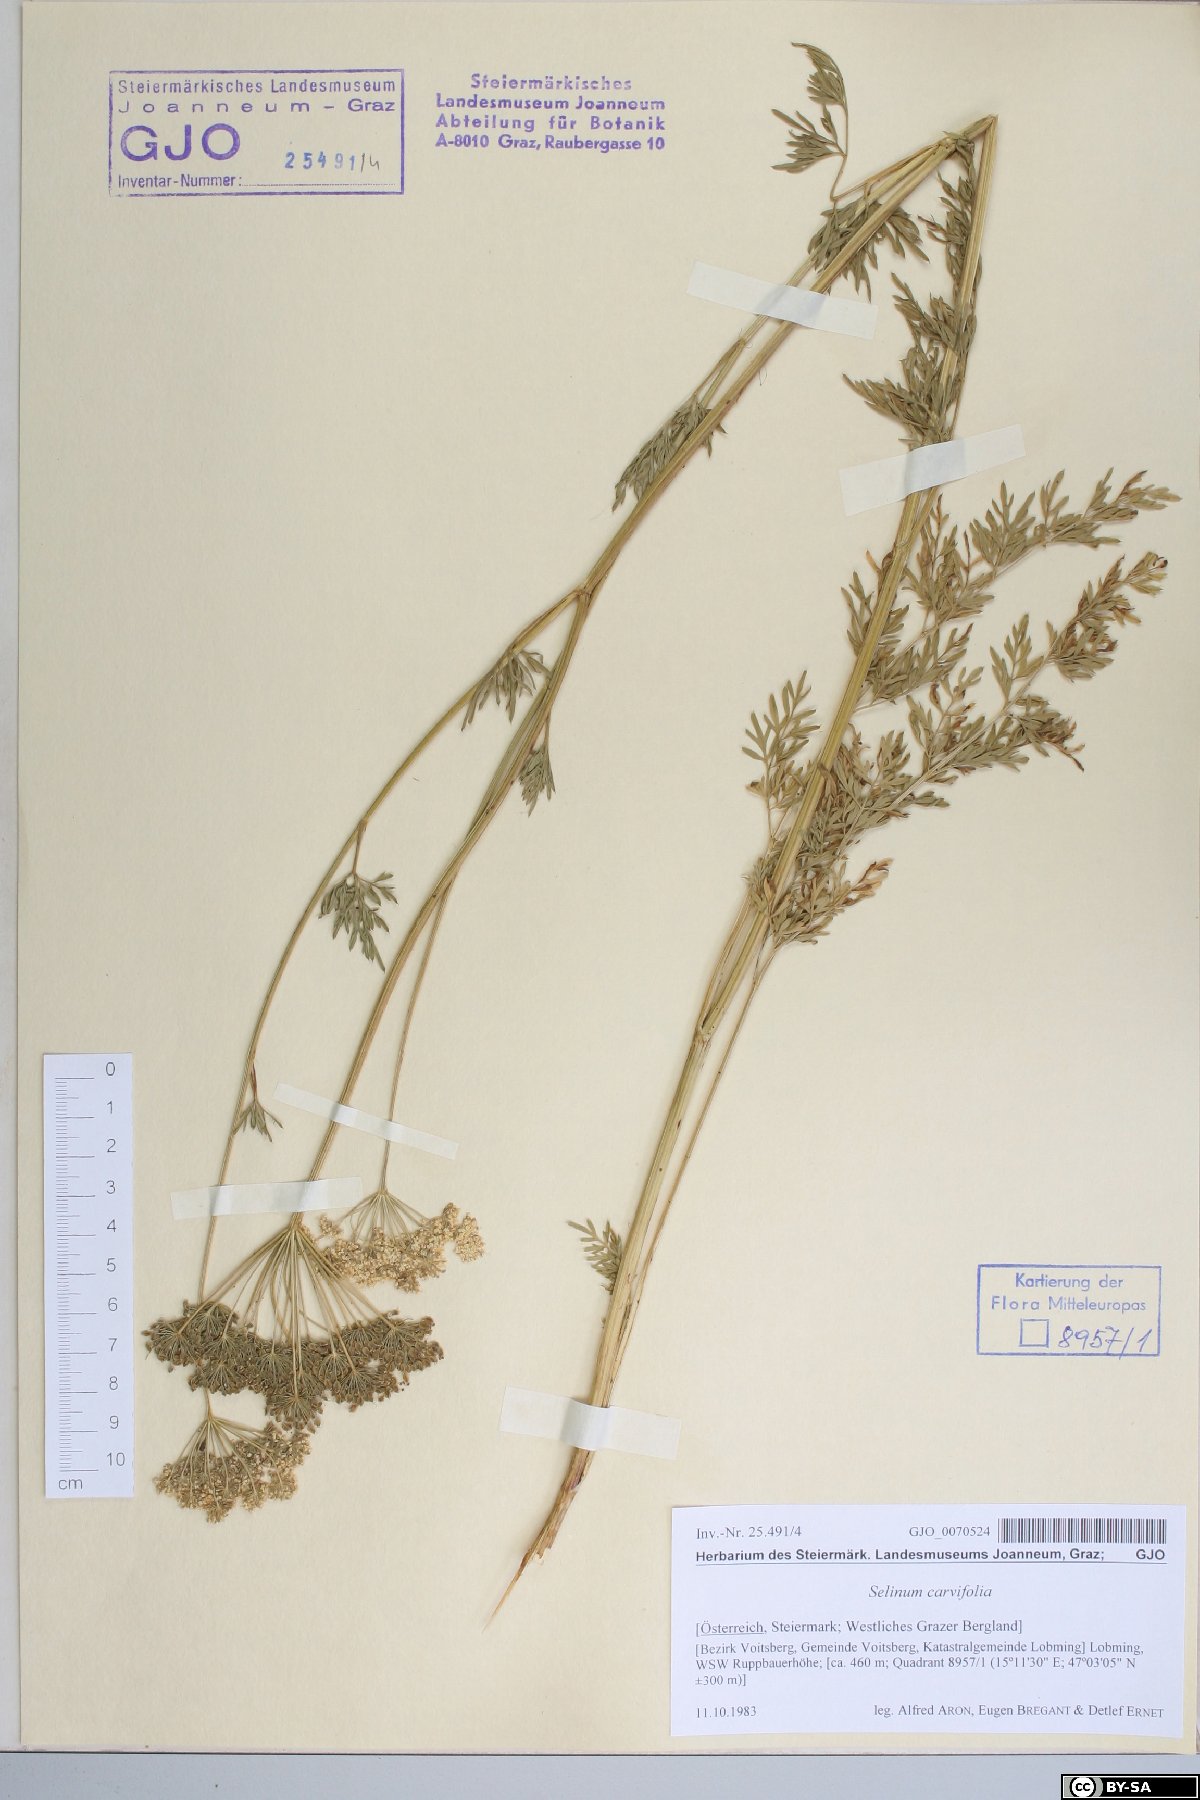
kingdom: Plantae
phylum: Tracheophyta
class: Magnoliopsida
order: Apiales
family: Apiaceae
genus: Selinum
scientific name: Selinum carvifolia
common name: Cambridge milk-parsley
